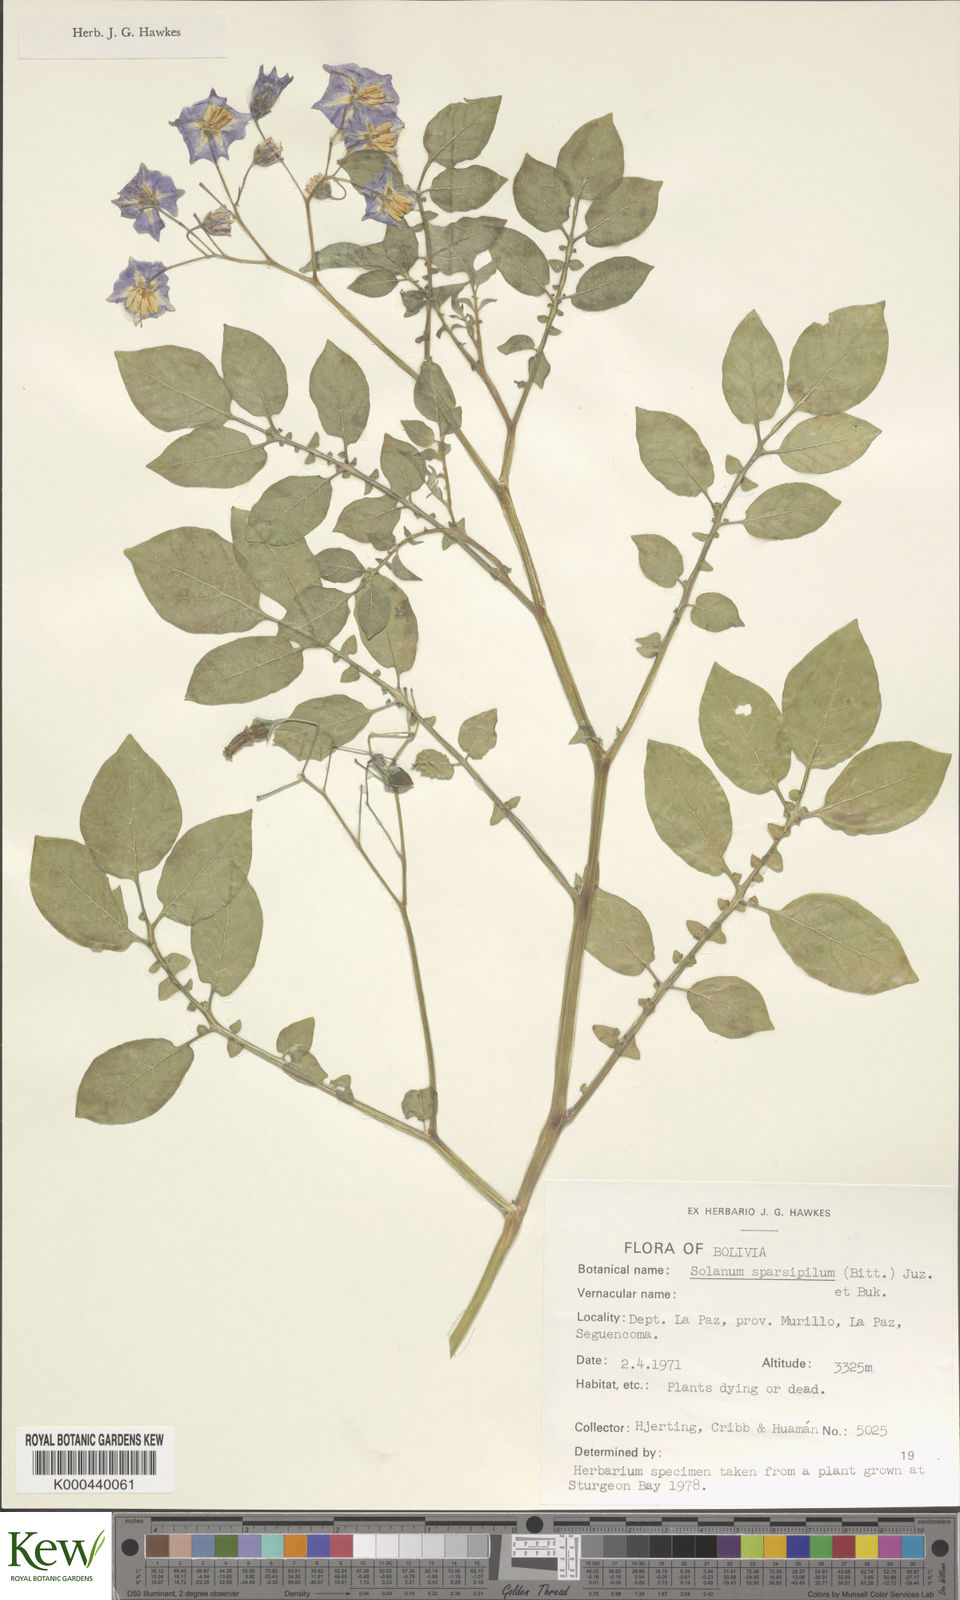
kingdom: Plantae
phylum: Tracheophyta
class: Magnoliopsida
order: Solanales
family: Solanaceae
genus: Solanum
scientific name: Solanum brevicaule
